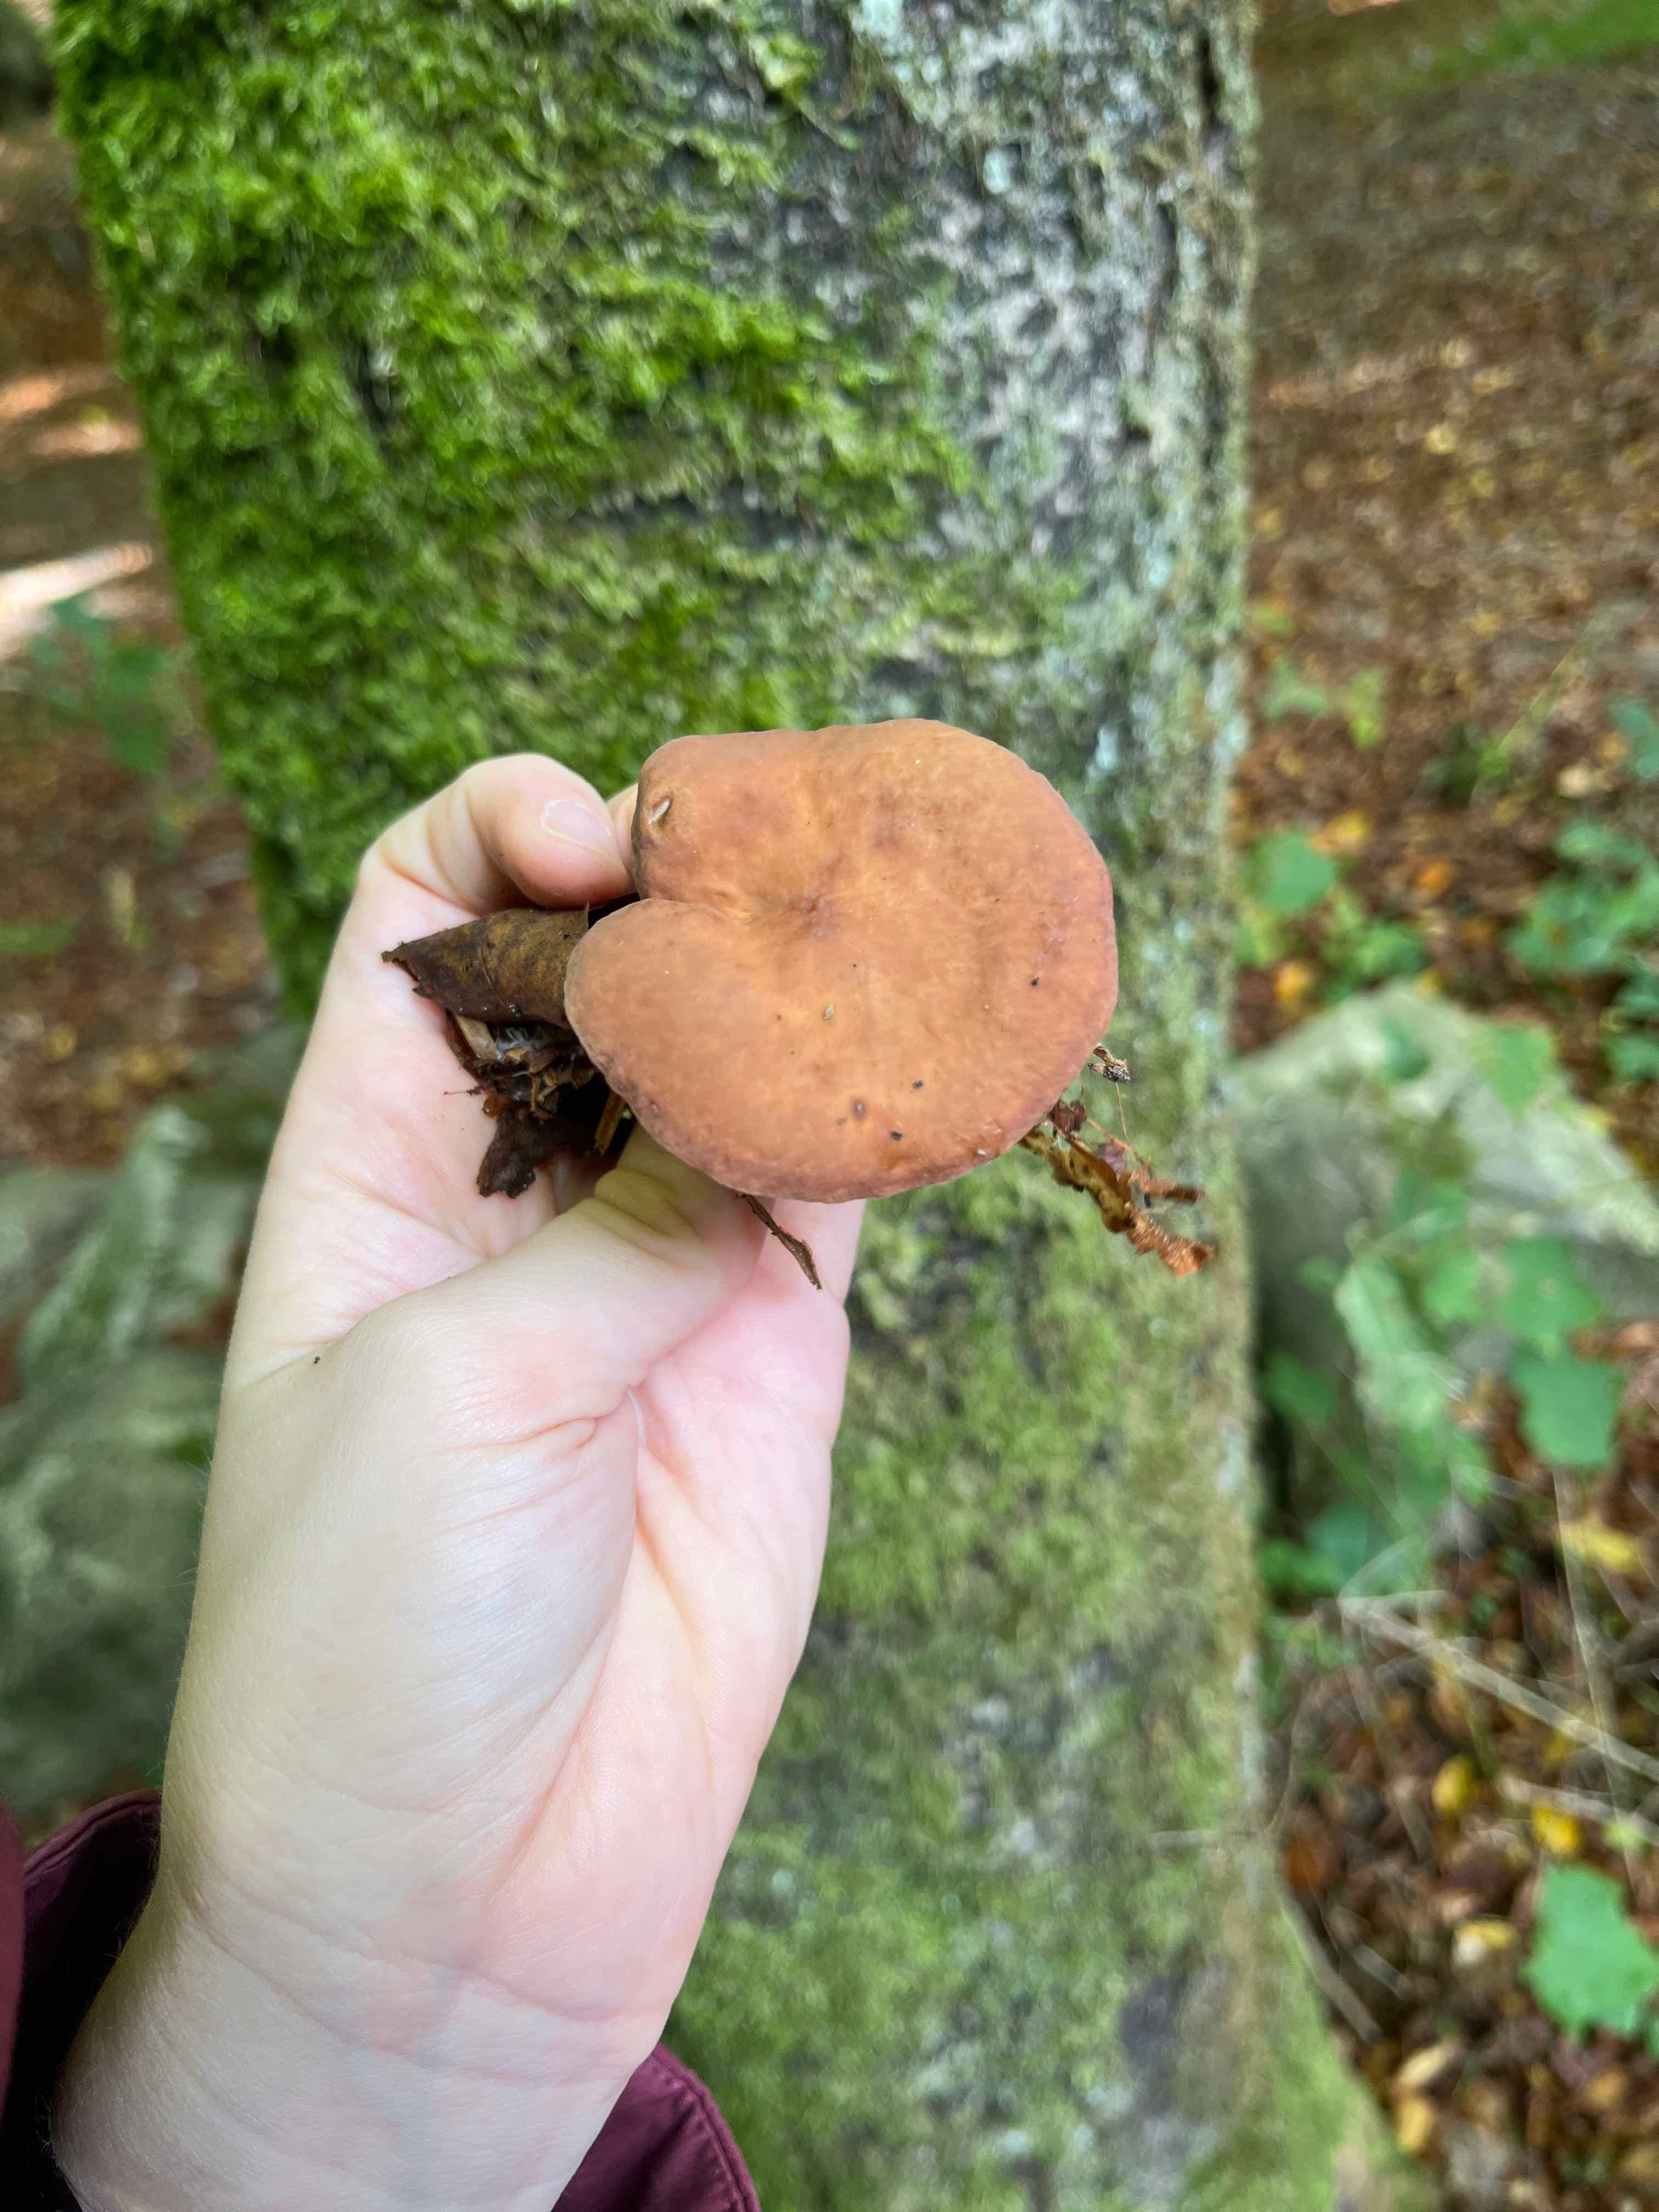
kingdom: Fungi
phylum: Basidiomycota
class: Agaricomycetes
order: Russulales
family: Russulaceae
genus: Lactarius
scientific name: Lactarius subdulcis
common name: sødlig mælkehat
